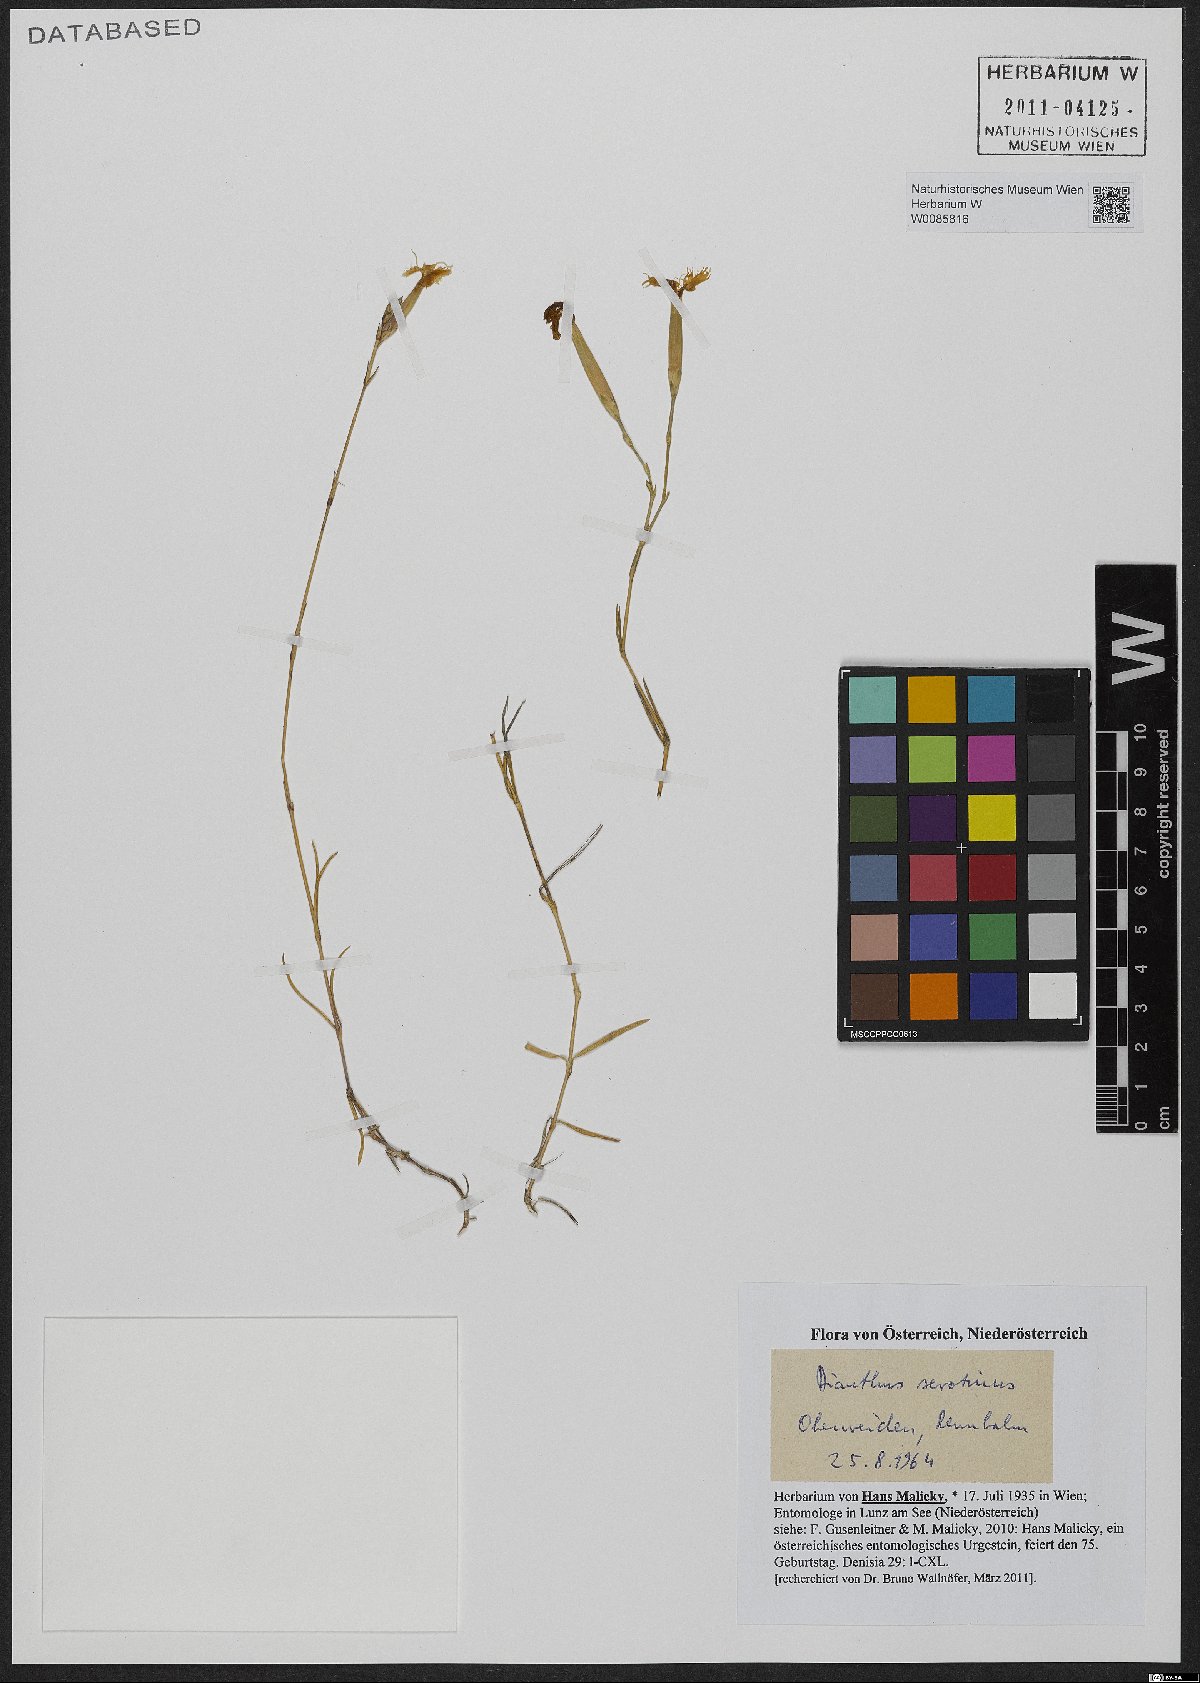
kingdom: Plantae
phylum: Tracheophyta
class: Magnoliopsida
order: Caryophyllales
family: Caryophyllaceae
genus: Dianthus
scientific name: Dianthus serotinus
